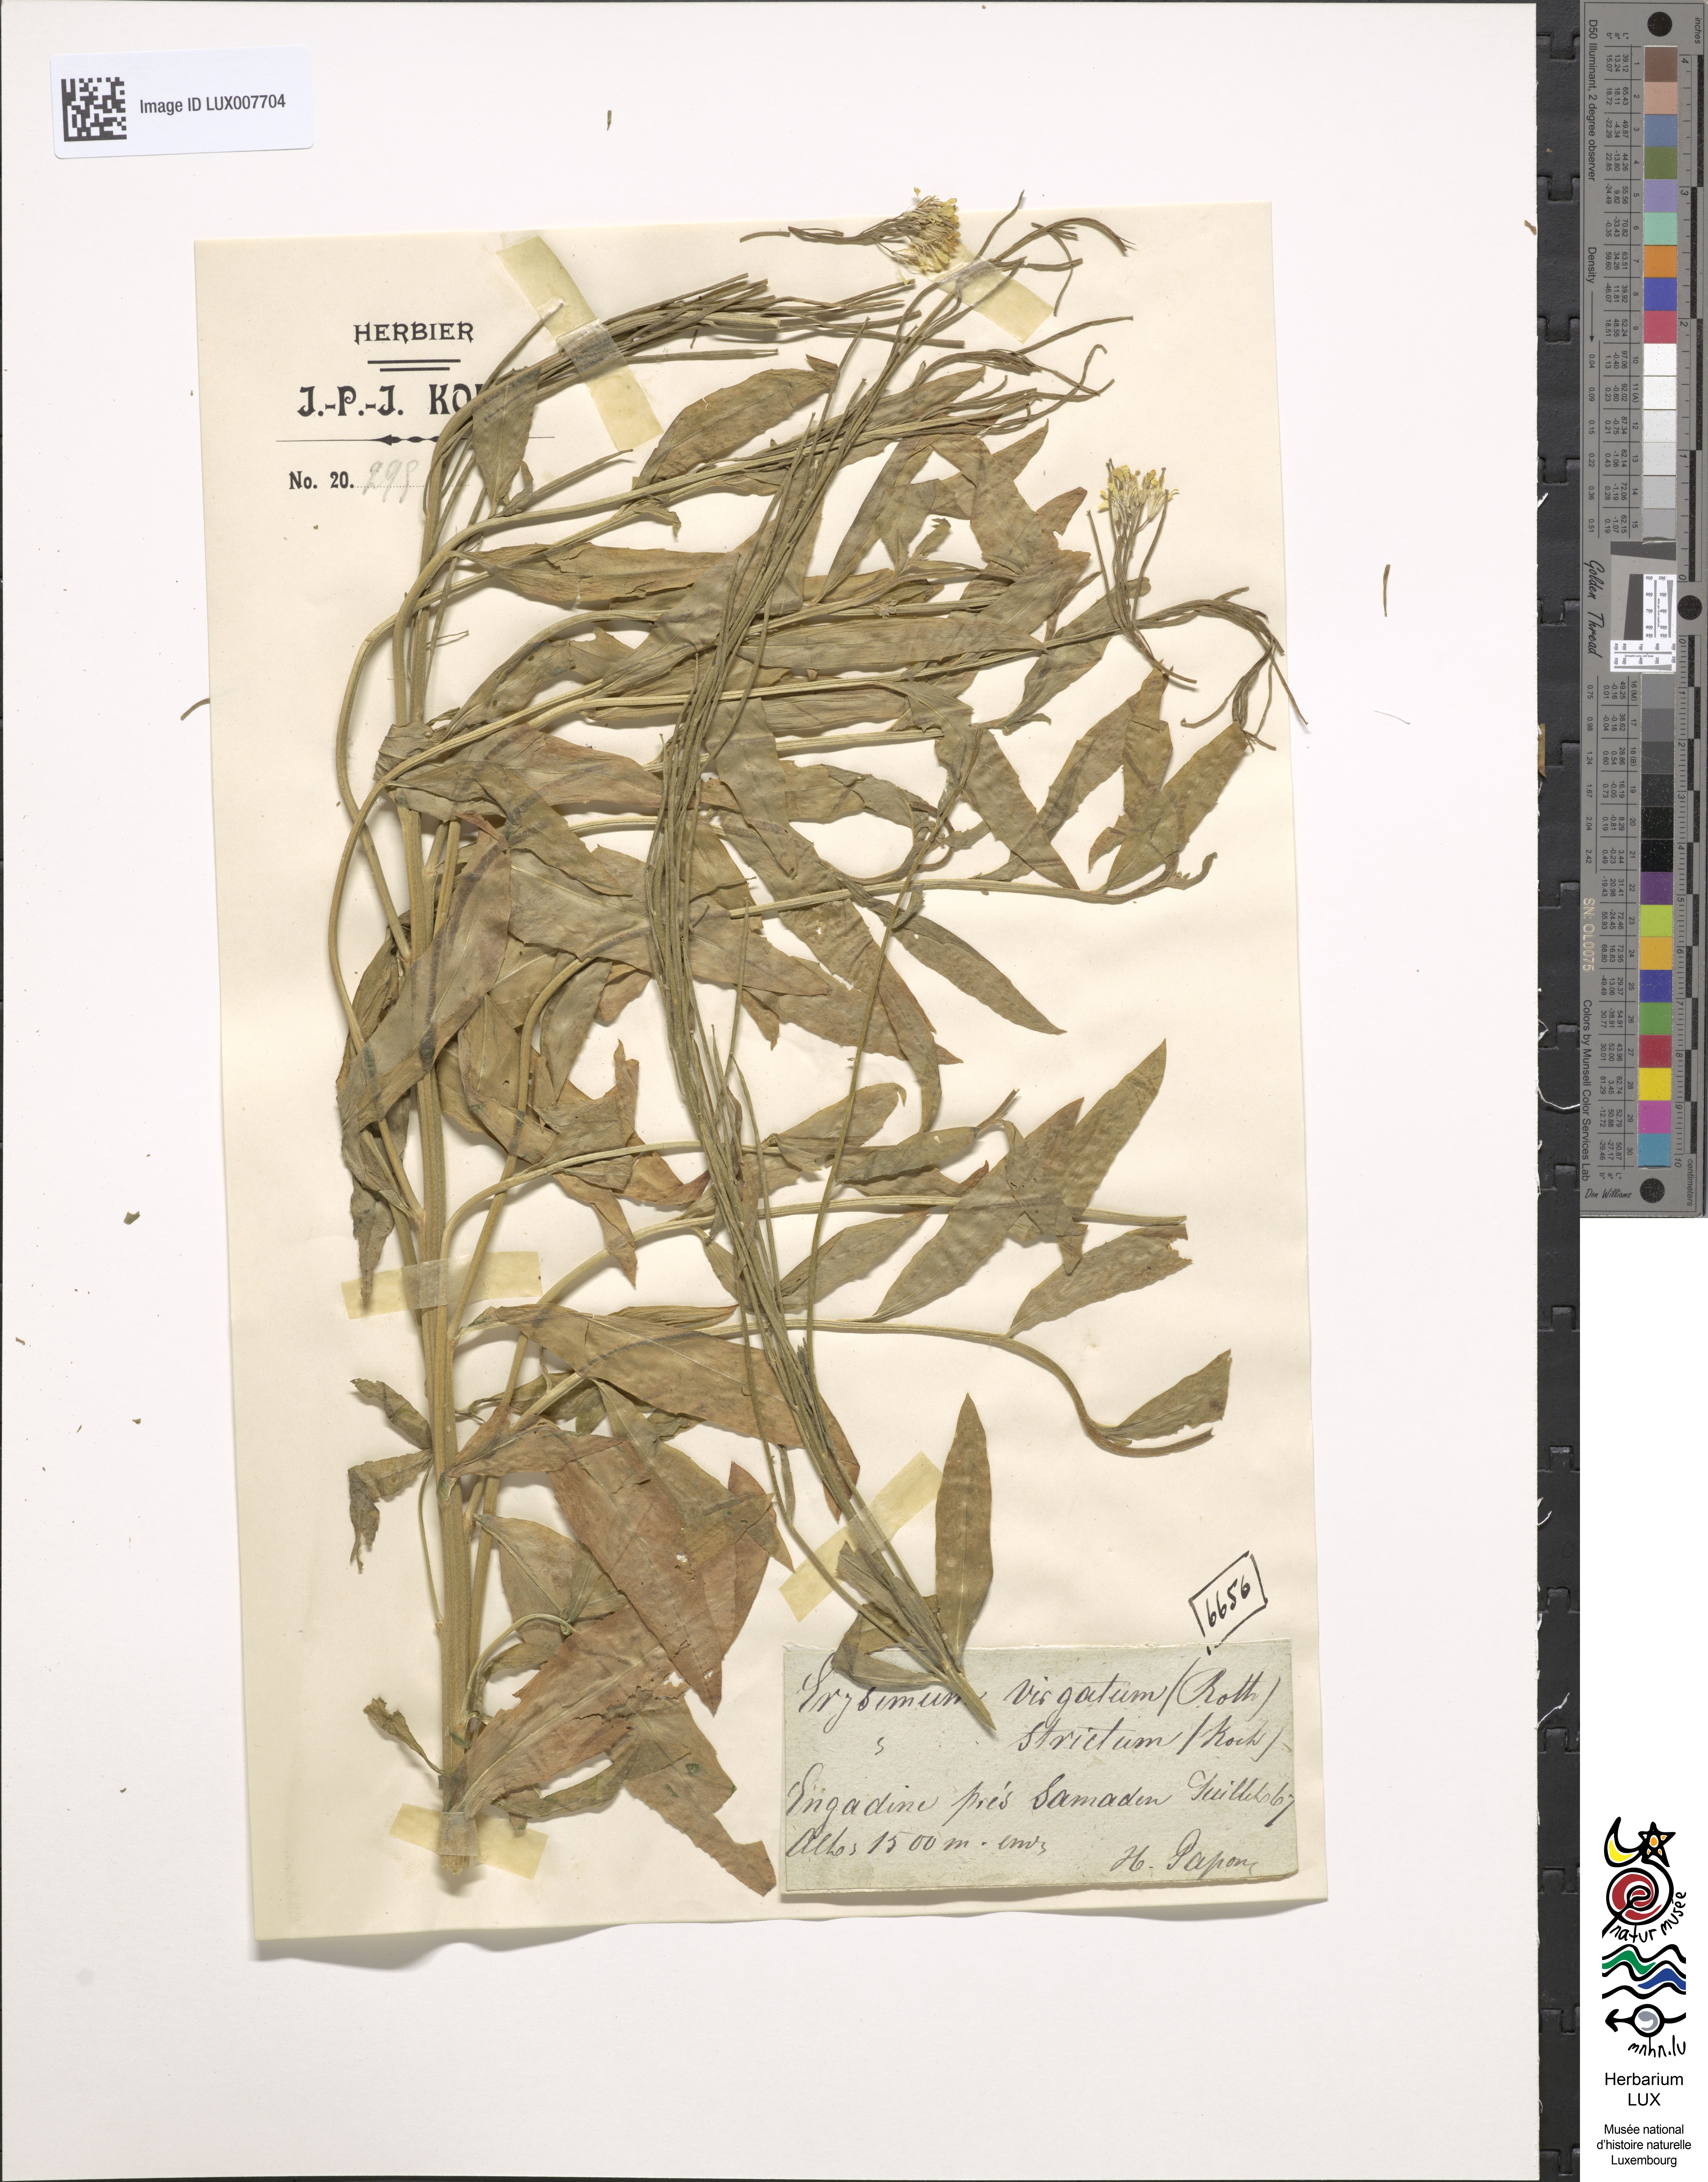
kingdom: Plantae
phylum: Tracheophyta
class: Magnoliopsida
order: Brassicales
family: Brassicaceae
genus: Erysimum
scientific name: Erysimum hieraciifolium
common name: European wallflower
